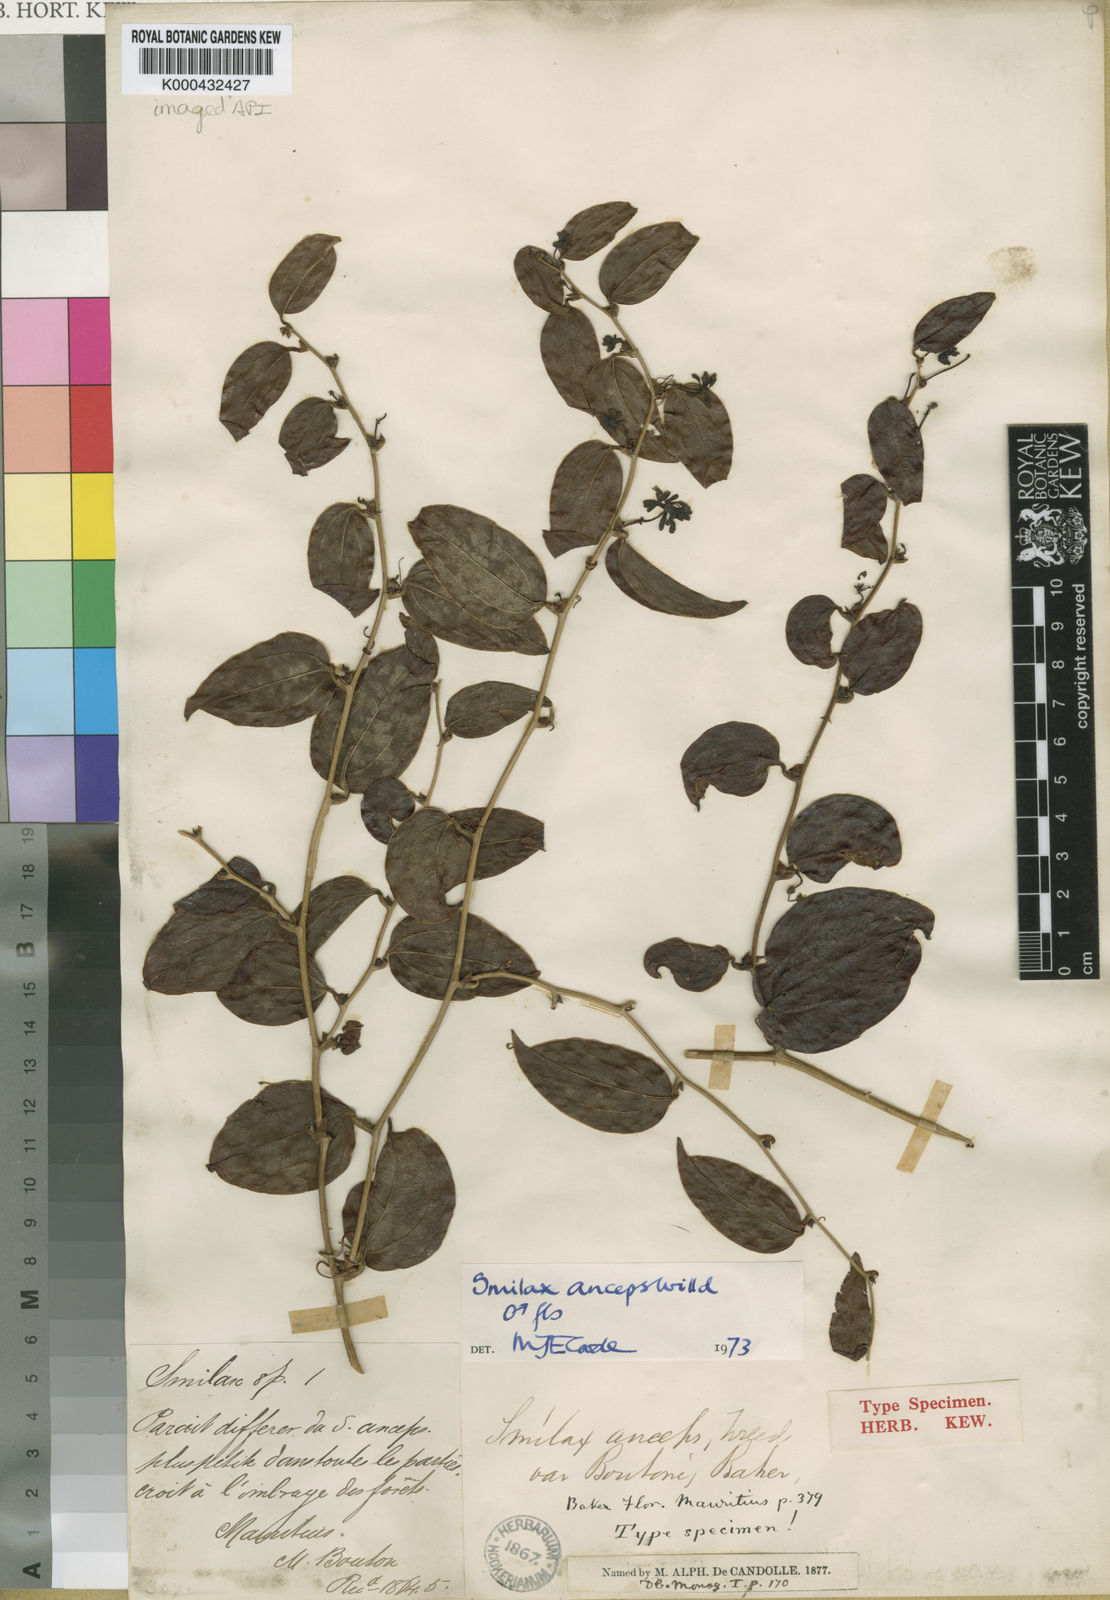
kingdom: Plantae
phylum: Tracheophyta
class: Liliopsida
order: Liliales
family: Smilacaceae
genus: Smilax
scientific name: Smilax anceps
